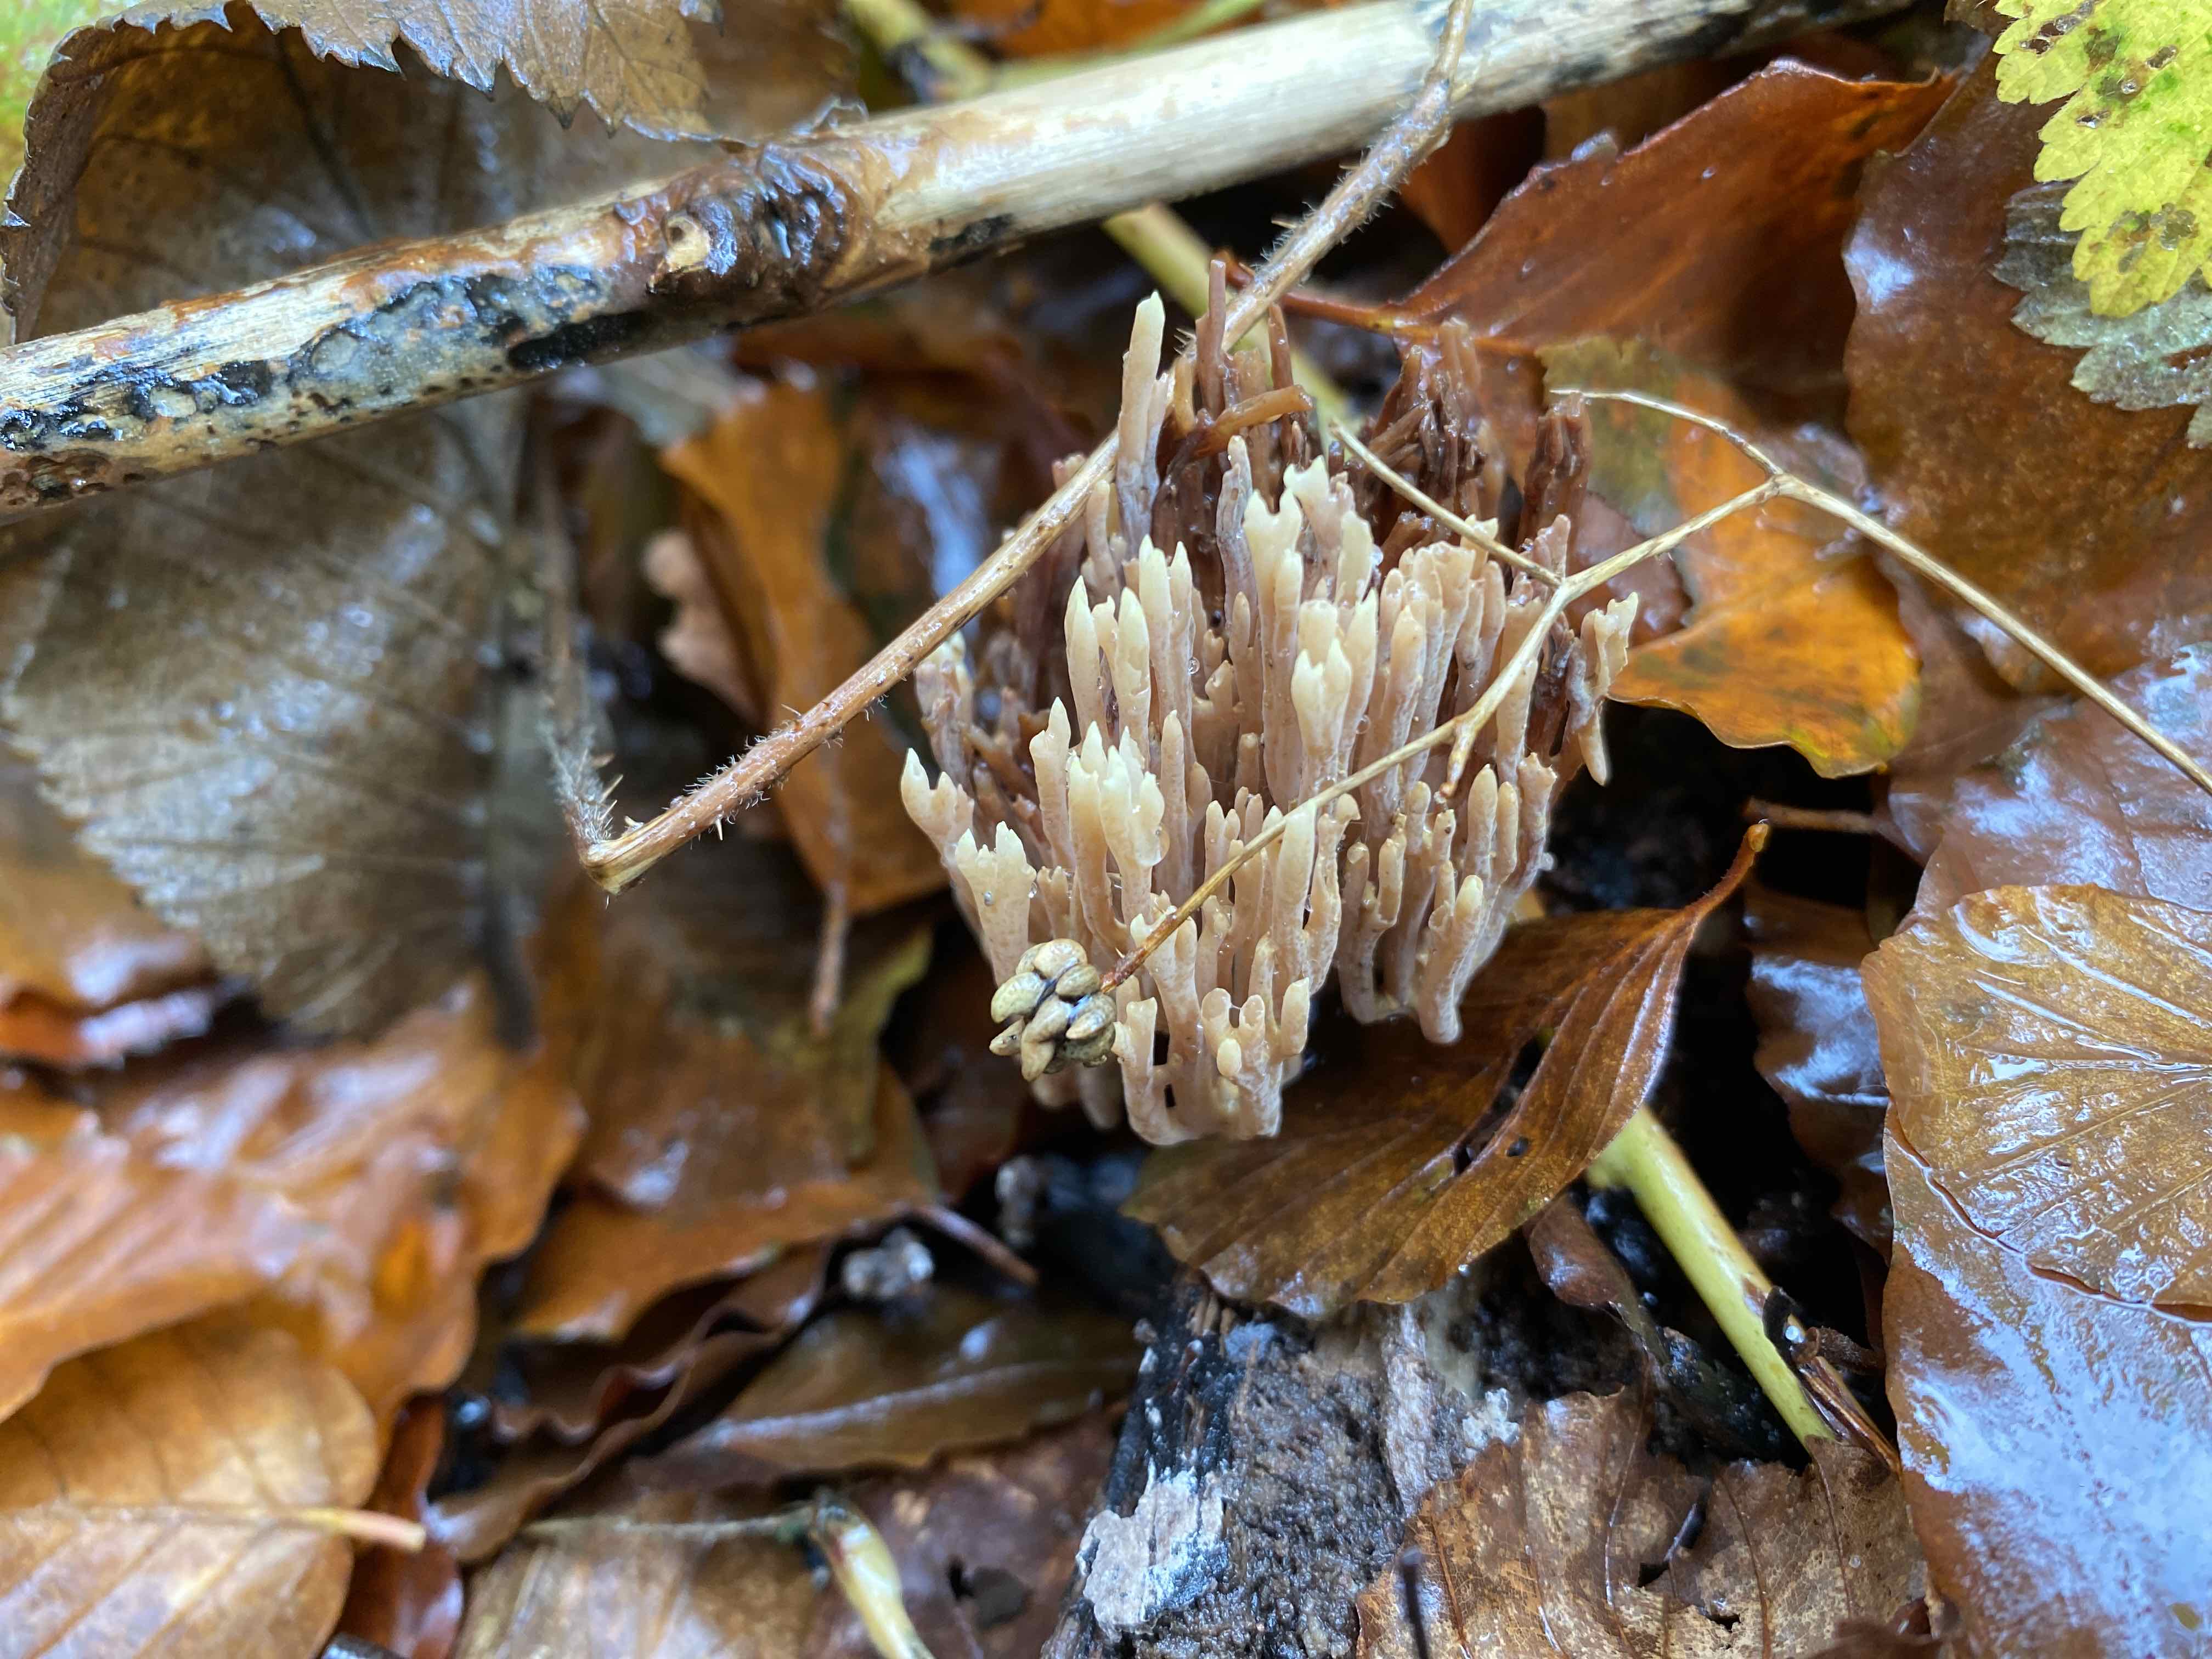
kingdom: Fungi
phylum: Basidiomycota
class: Agaricomycetes
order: Gomphales
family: Gomphaceae
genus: Ramaria
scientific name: Ramaria stricta
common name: rank koralsvamp
